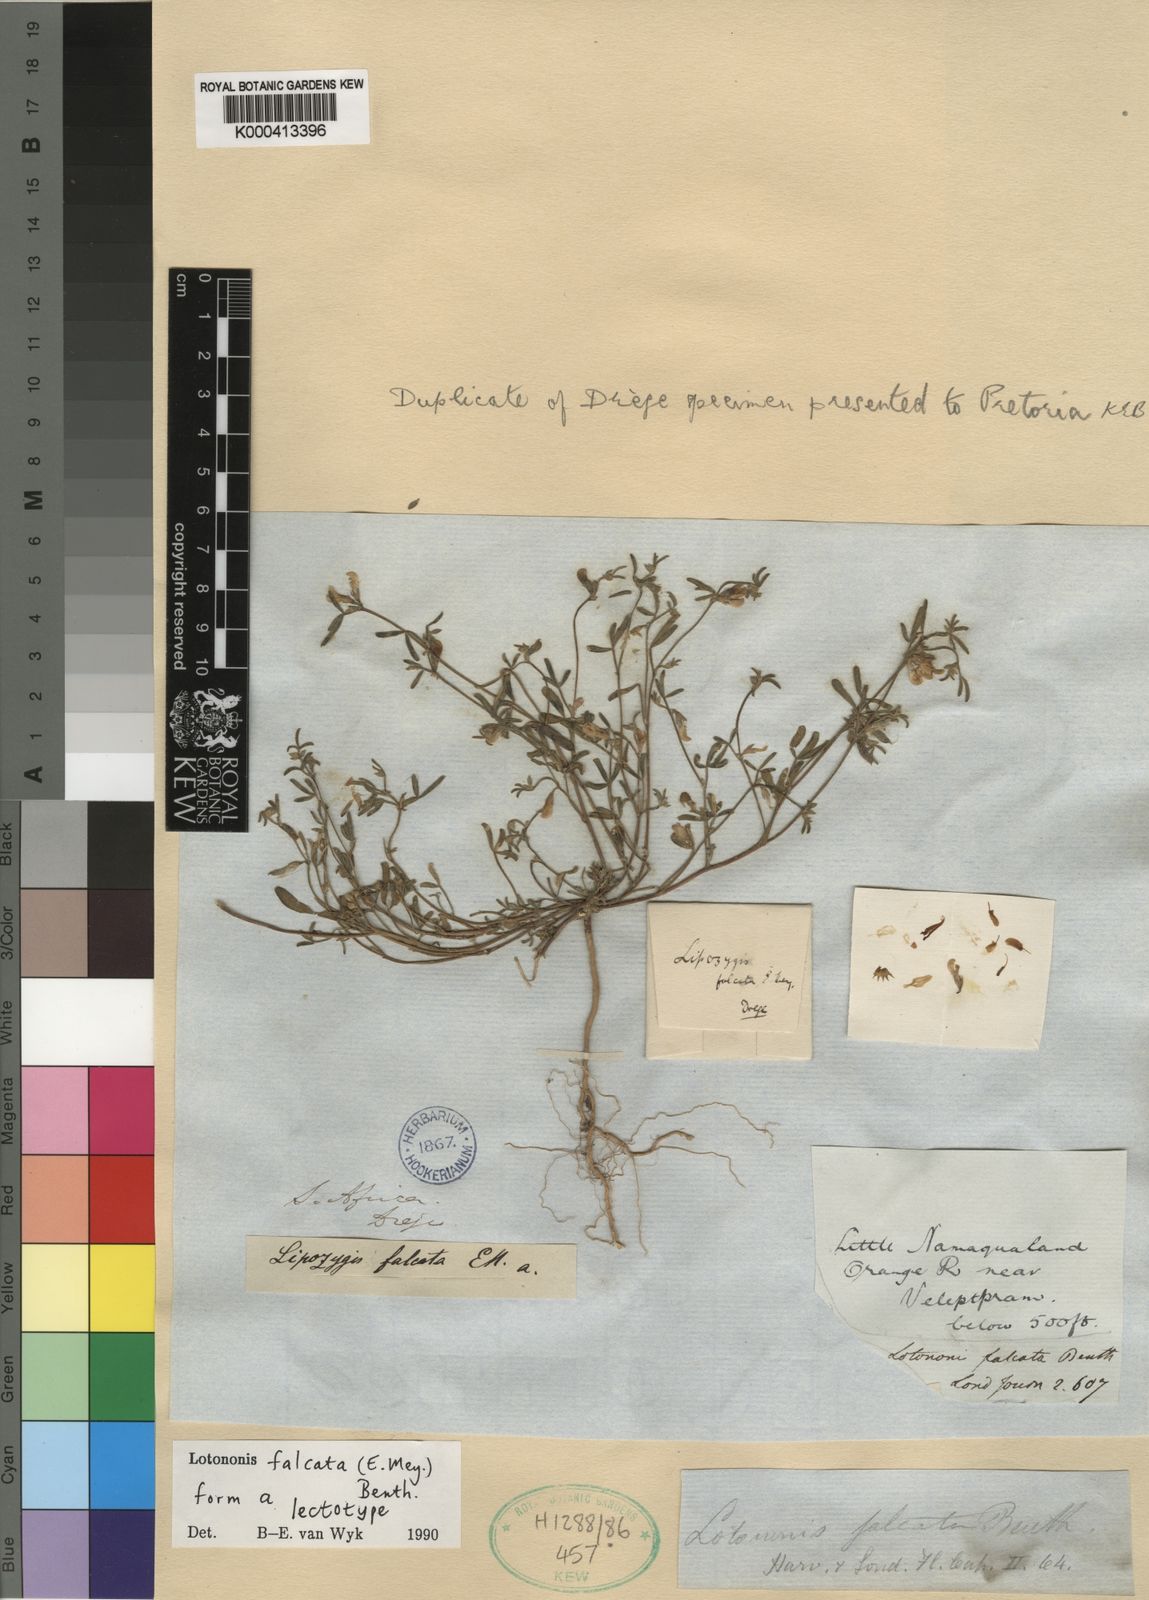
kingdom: Plantae
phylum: Tracheophyta
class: Magnoliopsida
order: Fabales
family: Fabaceae
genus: Lotononis
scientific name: Lotononis falcata
